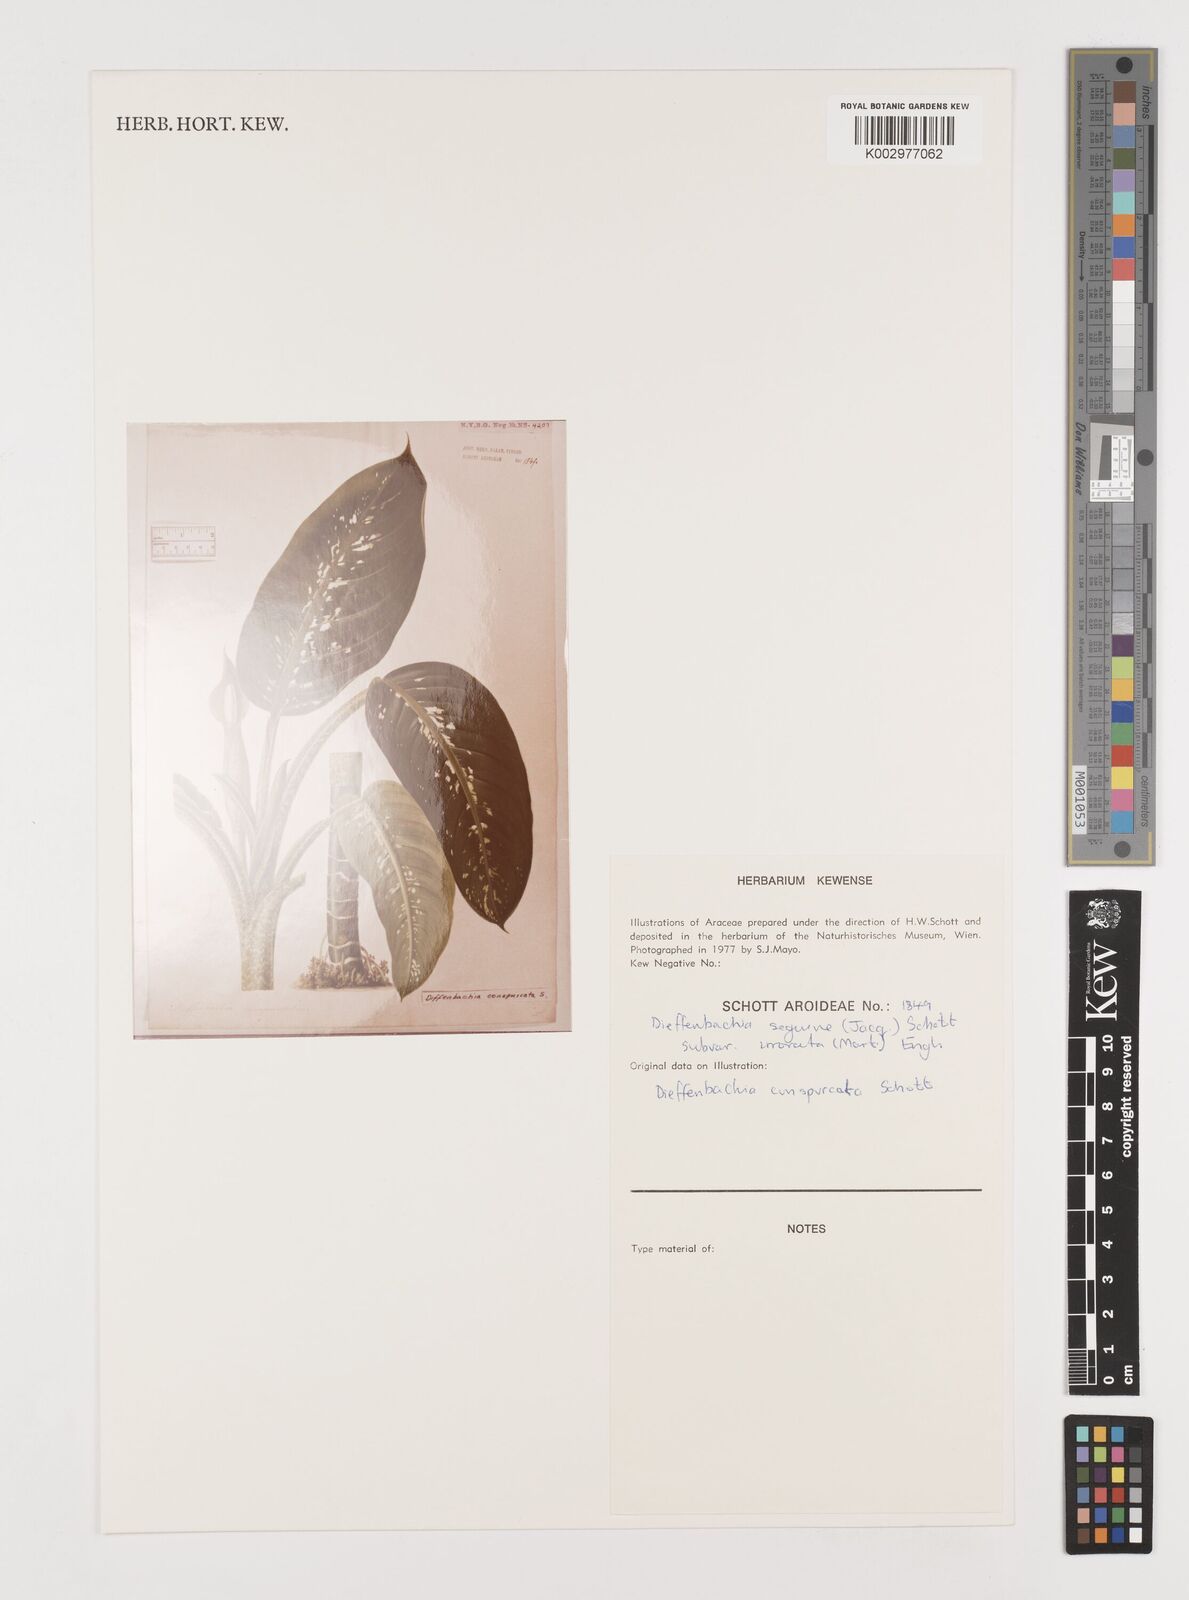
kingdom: Plantae
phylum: Tracheophyta
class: Liliopsida
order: Alismatales
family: Araceae
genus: Dieffenbachia
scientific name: Dieffenbachia seguine
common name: Dumbcane
